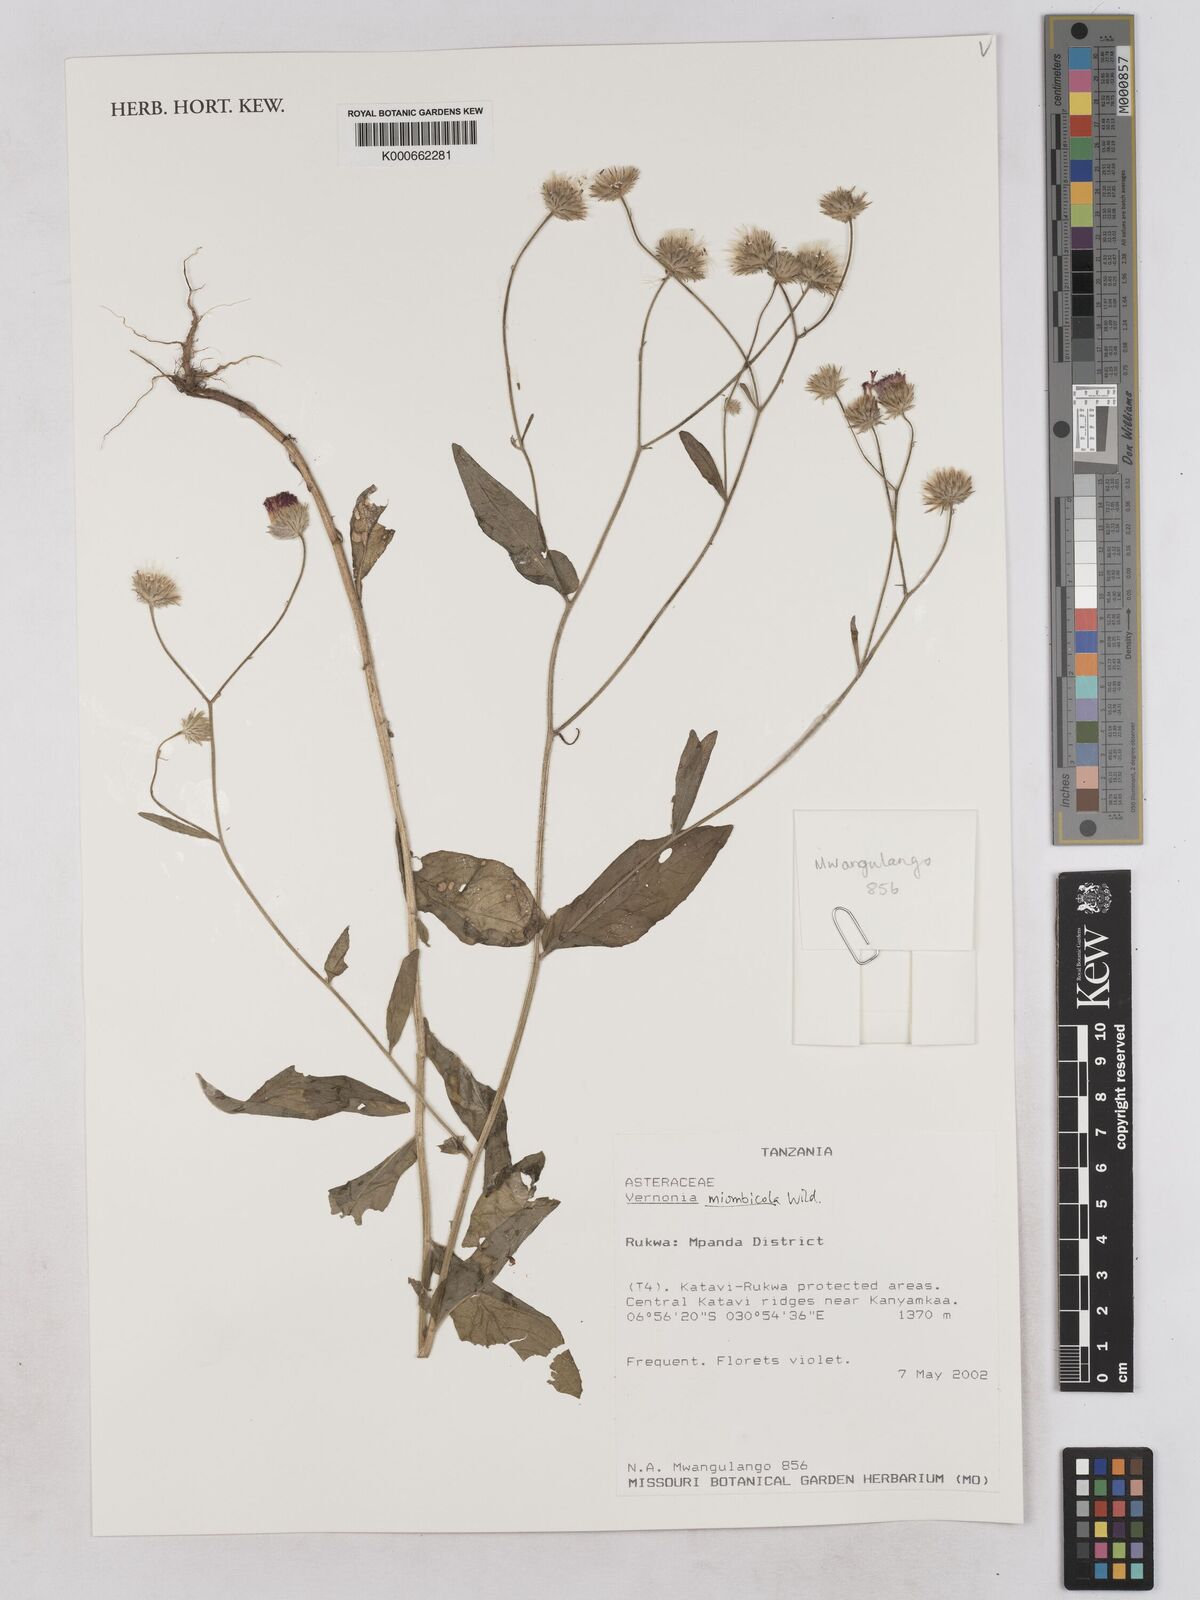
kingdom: Plantae
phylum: Tracheophyta
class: Magnoliopsida
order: Asterales
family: Asteraceae
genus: Vernonia
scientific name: Vernonia miombicola
